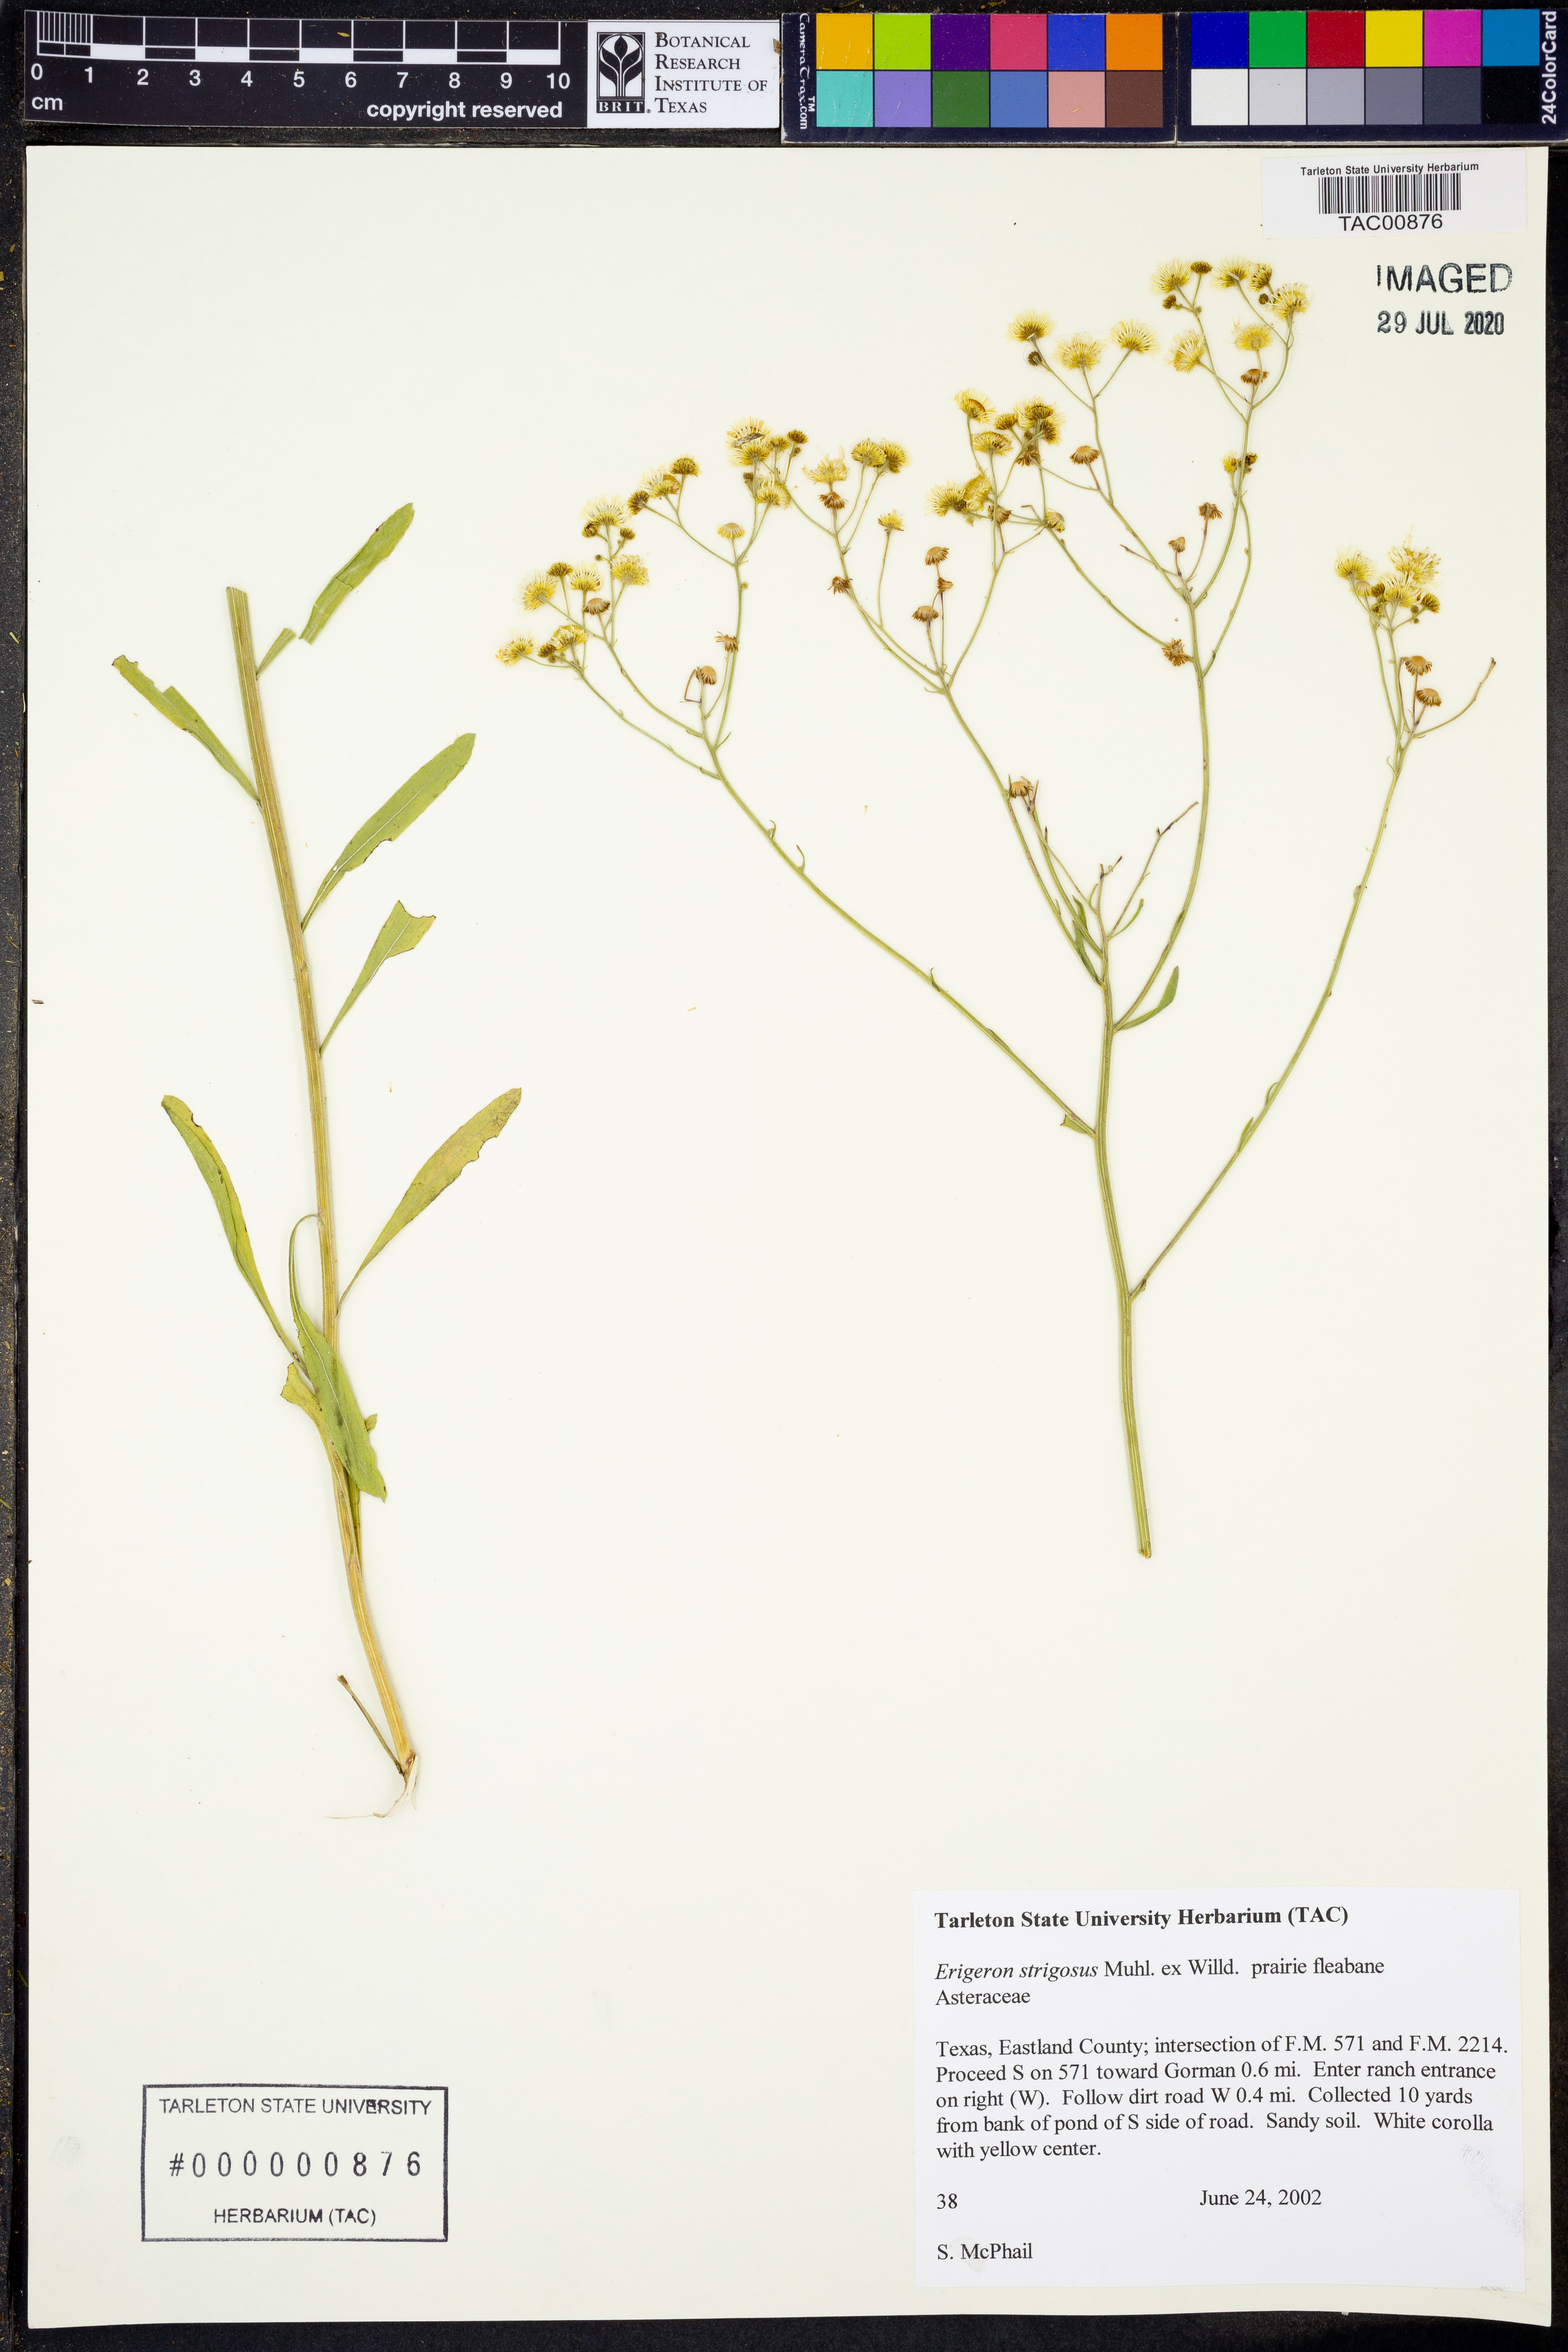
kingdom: Plantae
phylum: Tracheophyta
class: Magnoliopsida
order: Asterales
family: Asteraceae
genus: Erigeron
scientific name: Erigeron strigosus
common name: Common eastern fleabane
